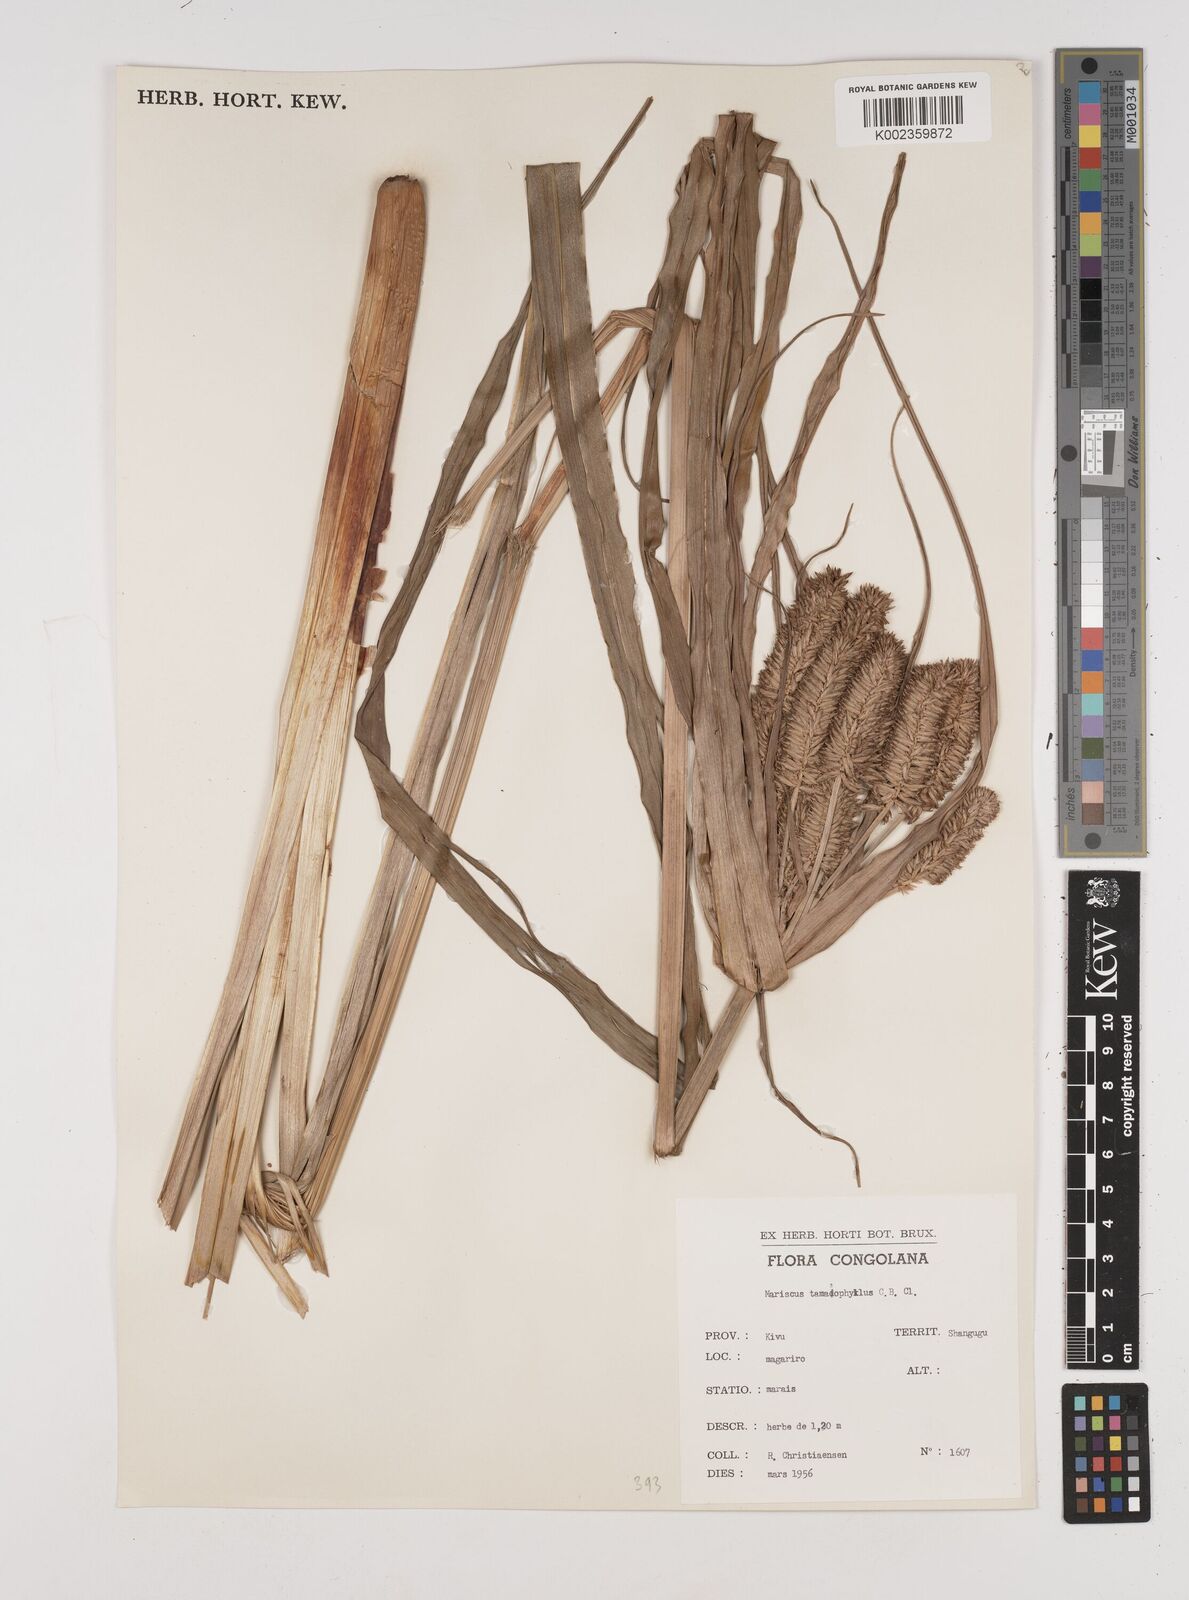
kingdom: Plantae
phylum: Tracheophyta
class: Liliopsida
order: Poales
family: Cyperaceae
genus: Cyperus
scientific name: Cyperus tomaiophyllus
